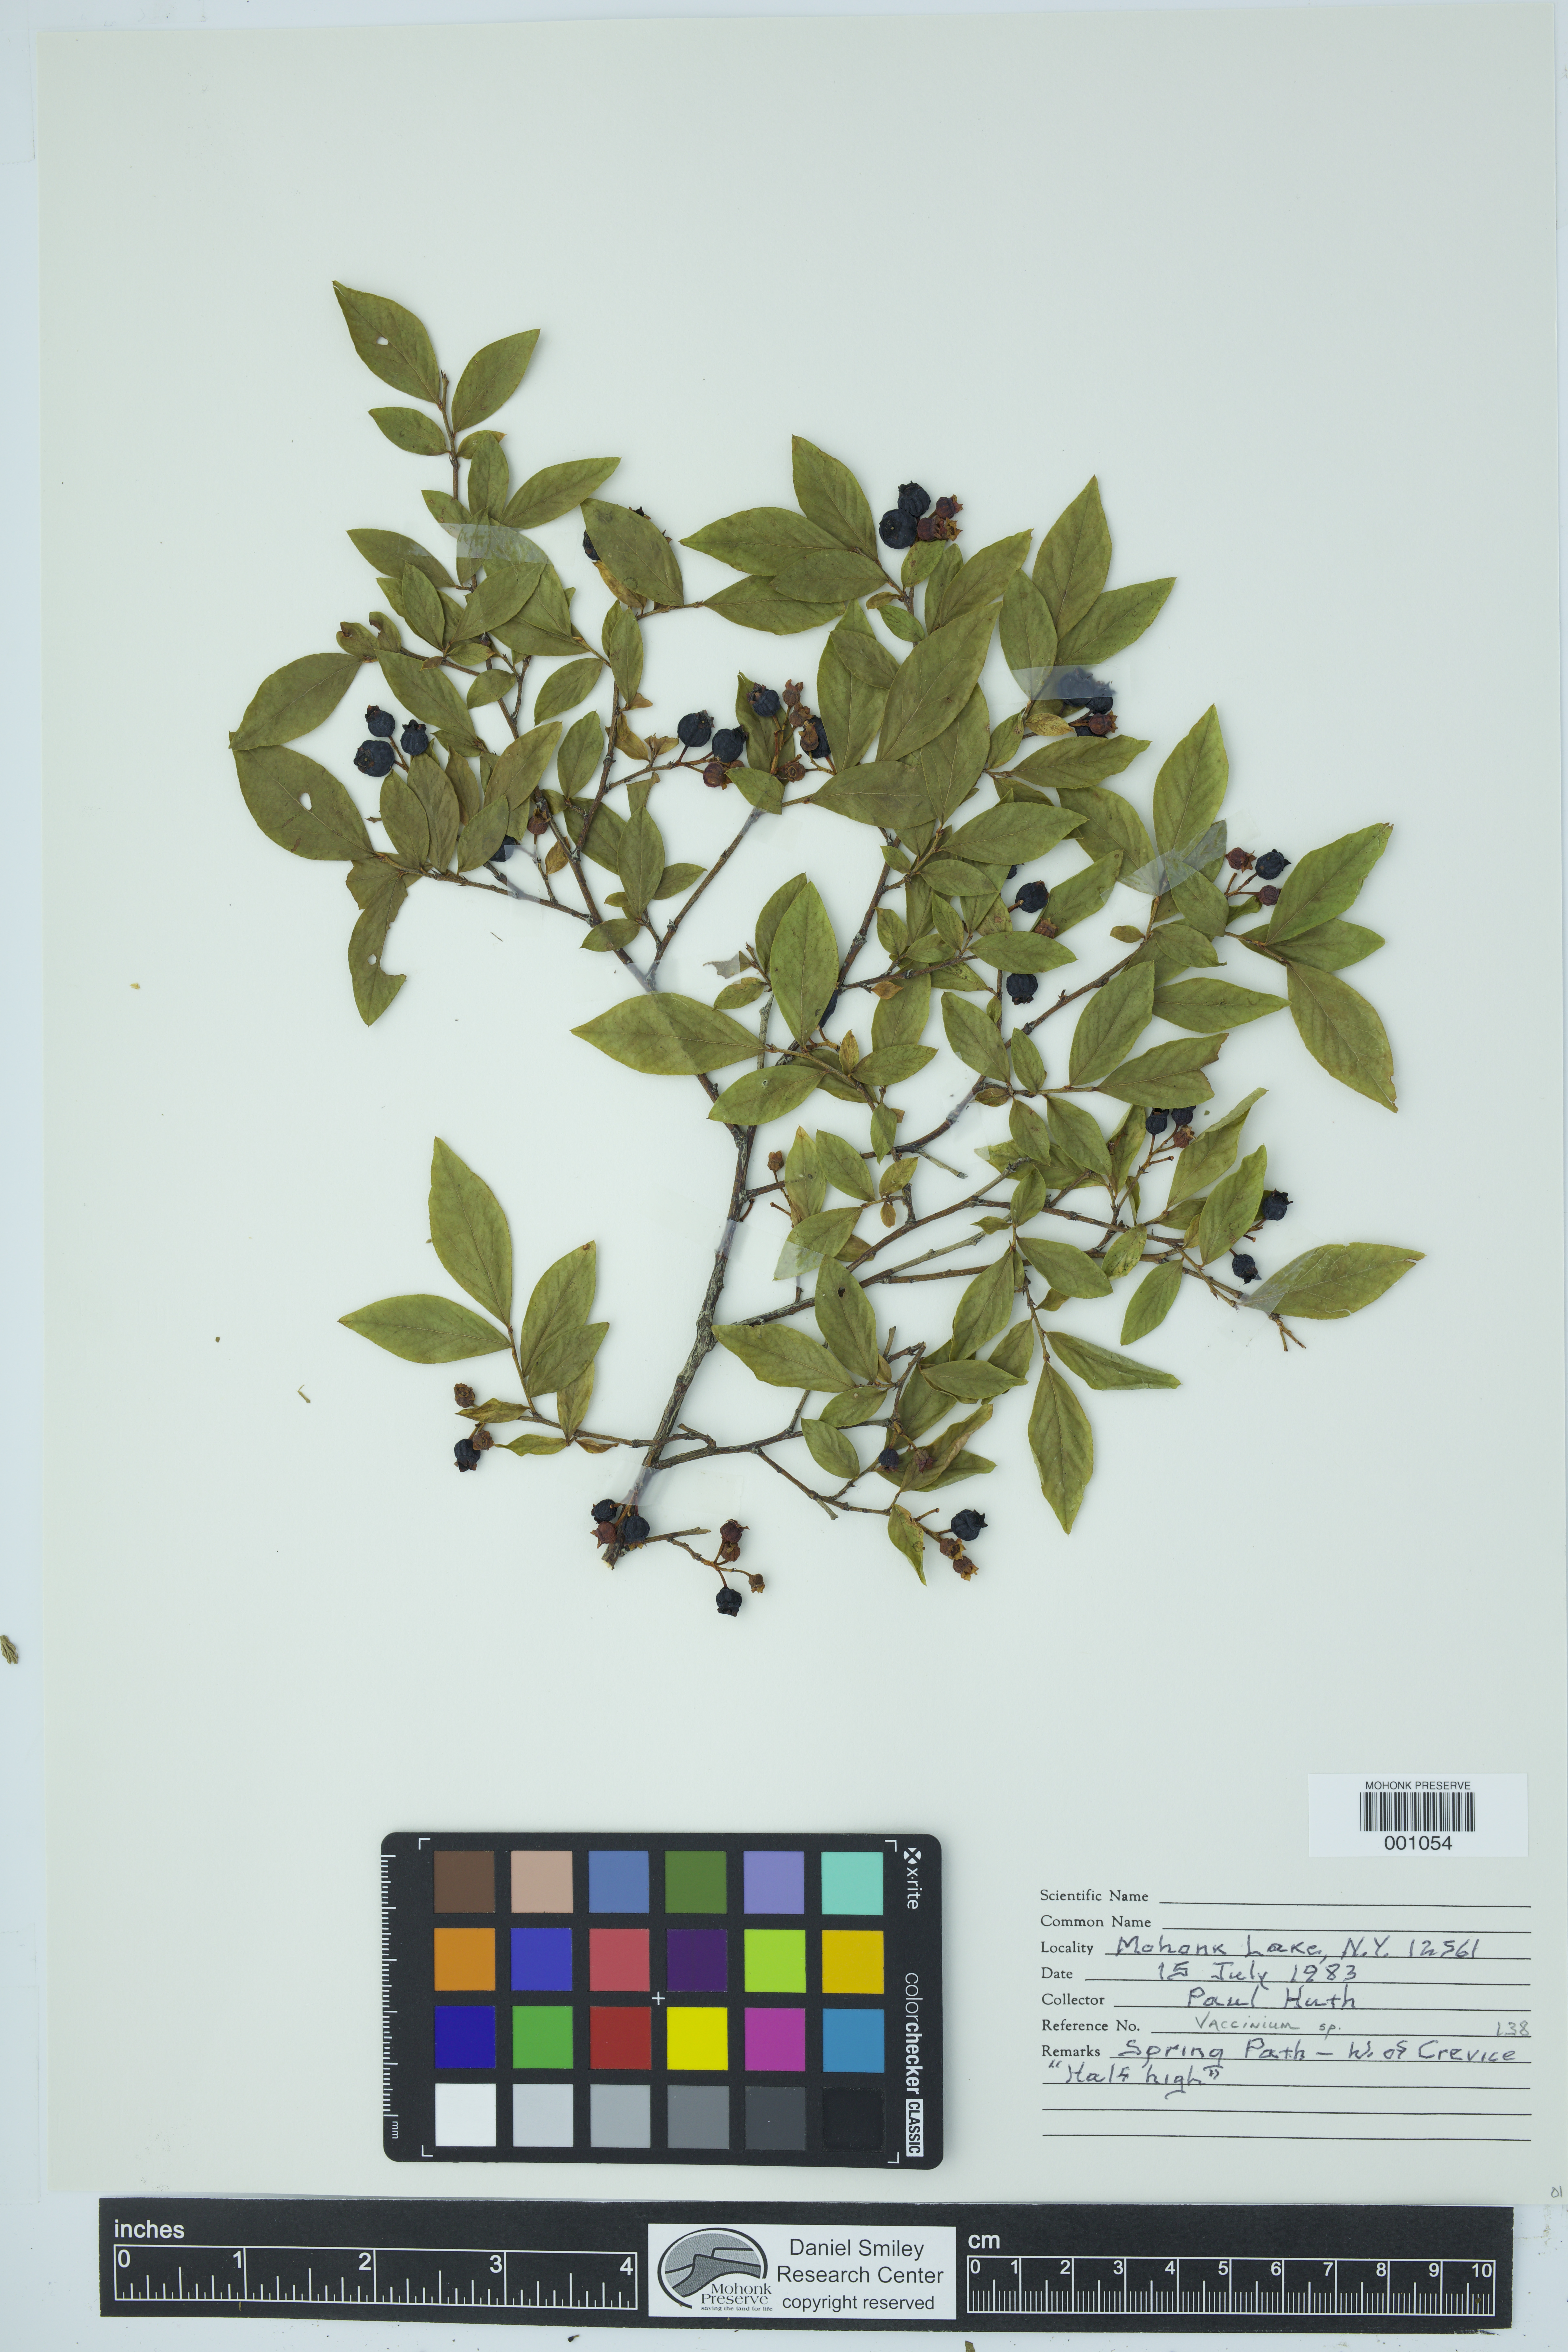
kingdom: Plantae
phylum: Tracheophyta
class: Magnoliopsida
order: Ericales
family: Ericaceae
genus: Vaccinium
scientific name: Vaccinium
